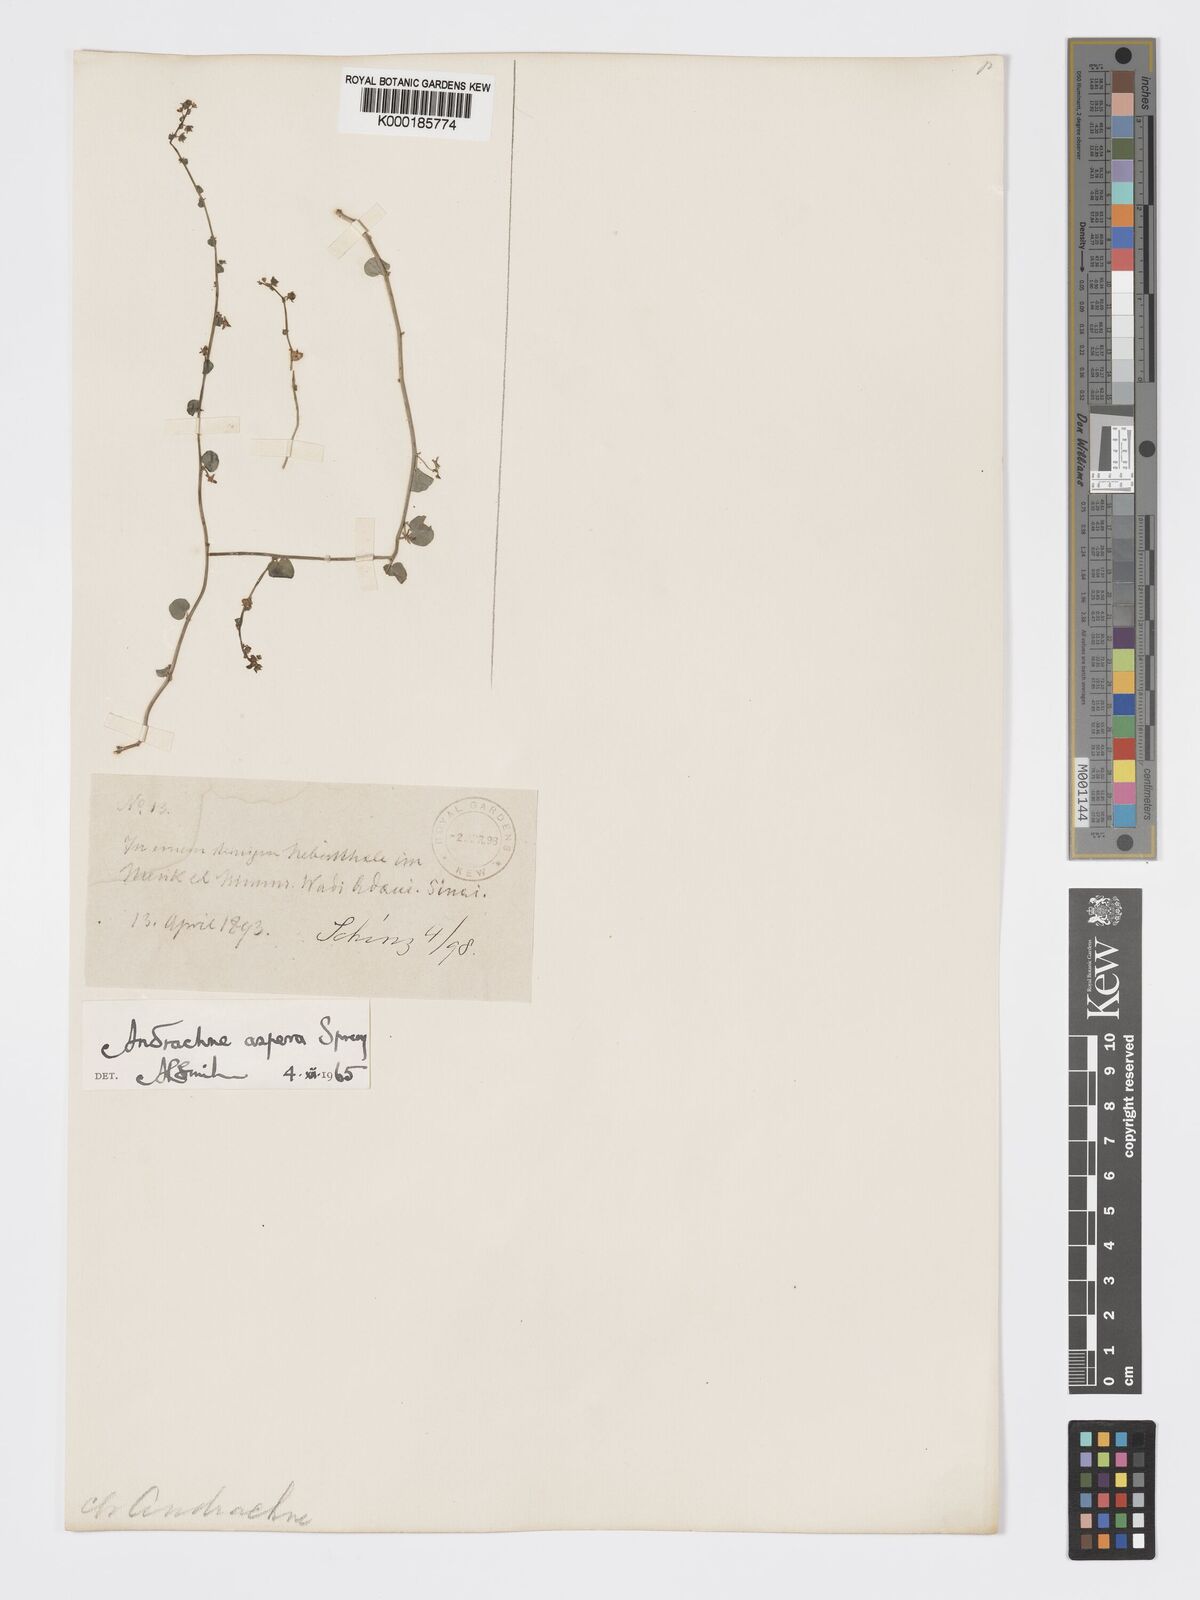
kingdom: Plantae
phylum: Tracheophyta
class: Magnoliopsida
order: Malpighiales
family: Phyllanthaceae
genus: Andrachne
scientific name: Andrachne aspera
